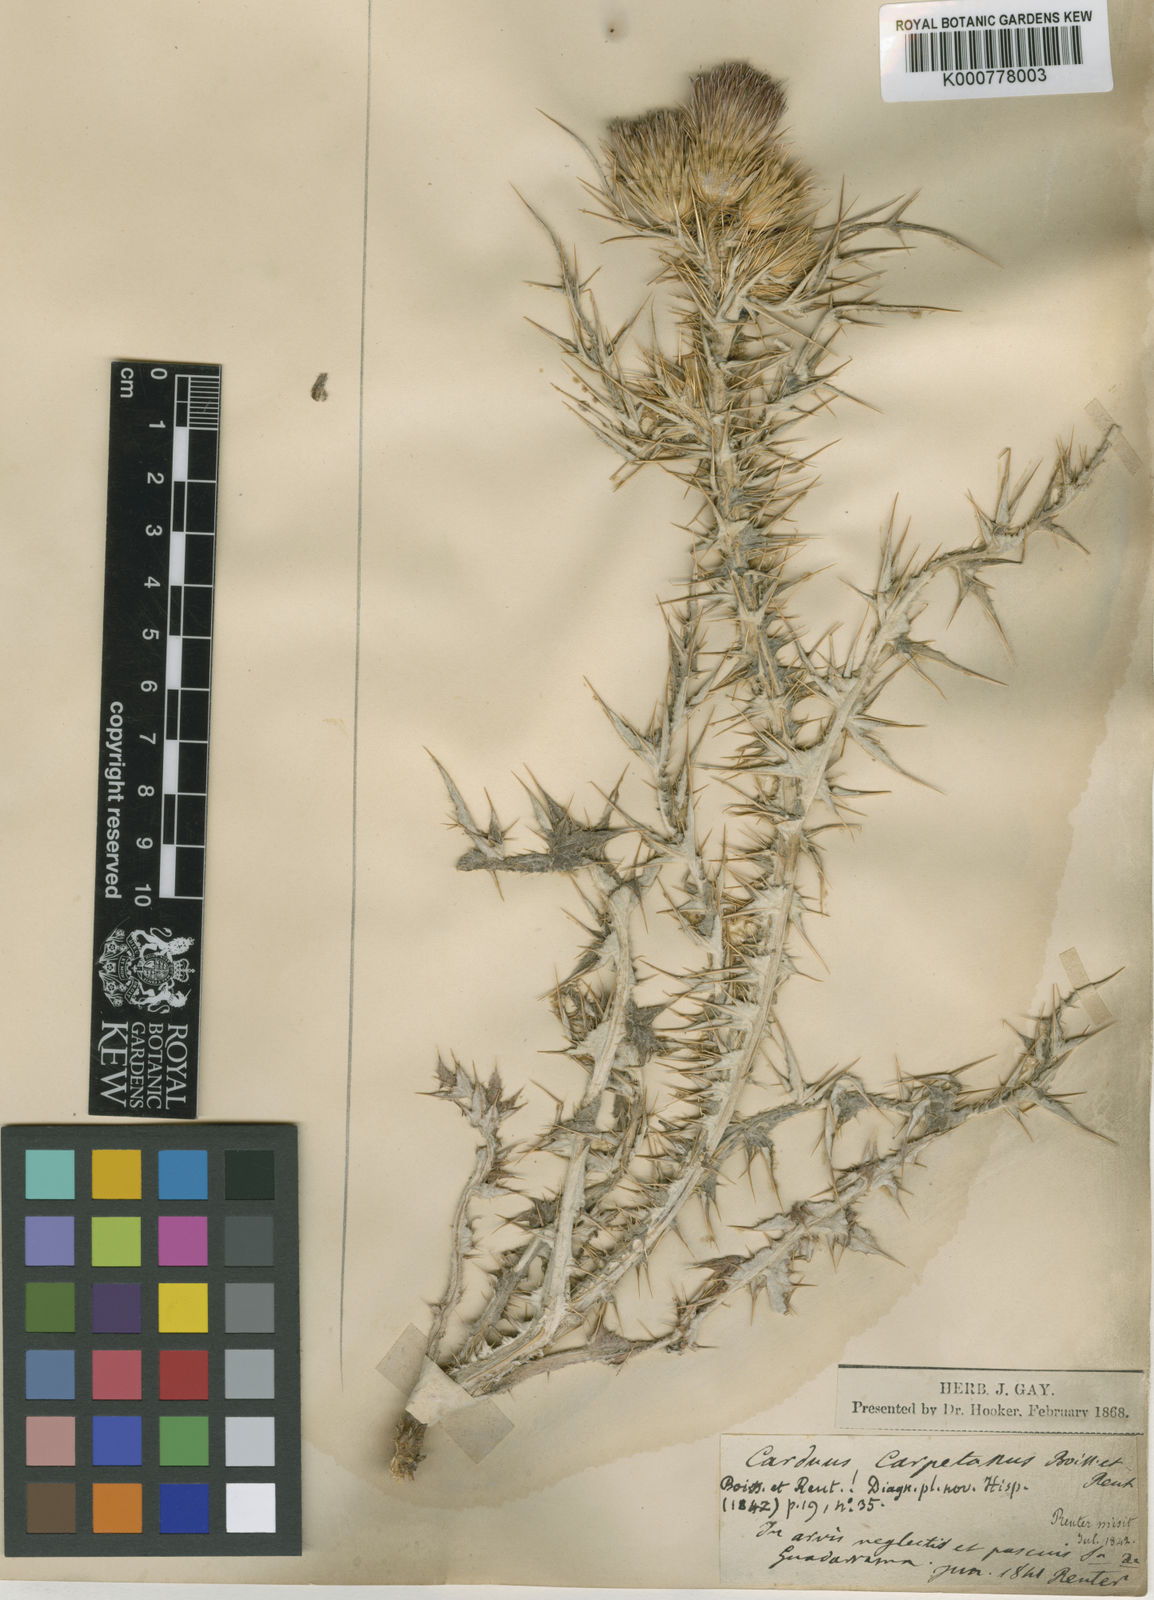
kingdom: Plantae
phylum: Tracheophyta
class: Magnoliopsida
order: Asterales
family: Asteraceae
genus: Carduus
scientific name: Carduus carpetanus
